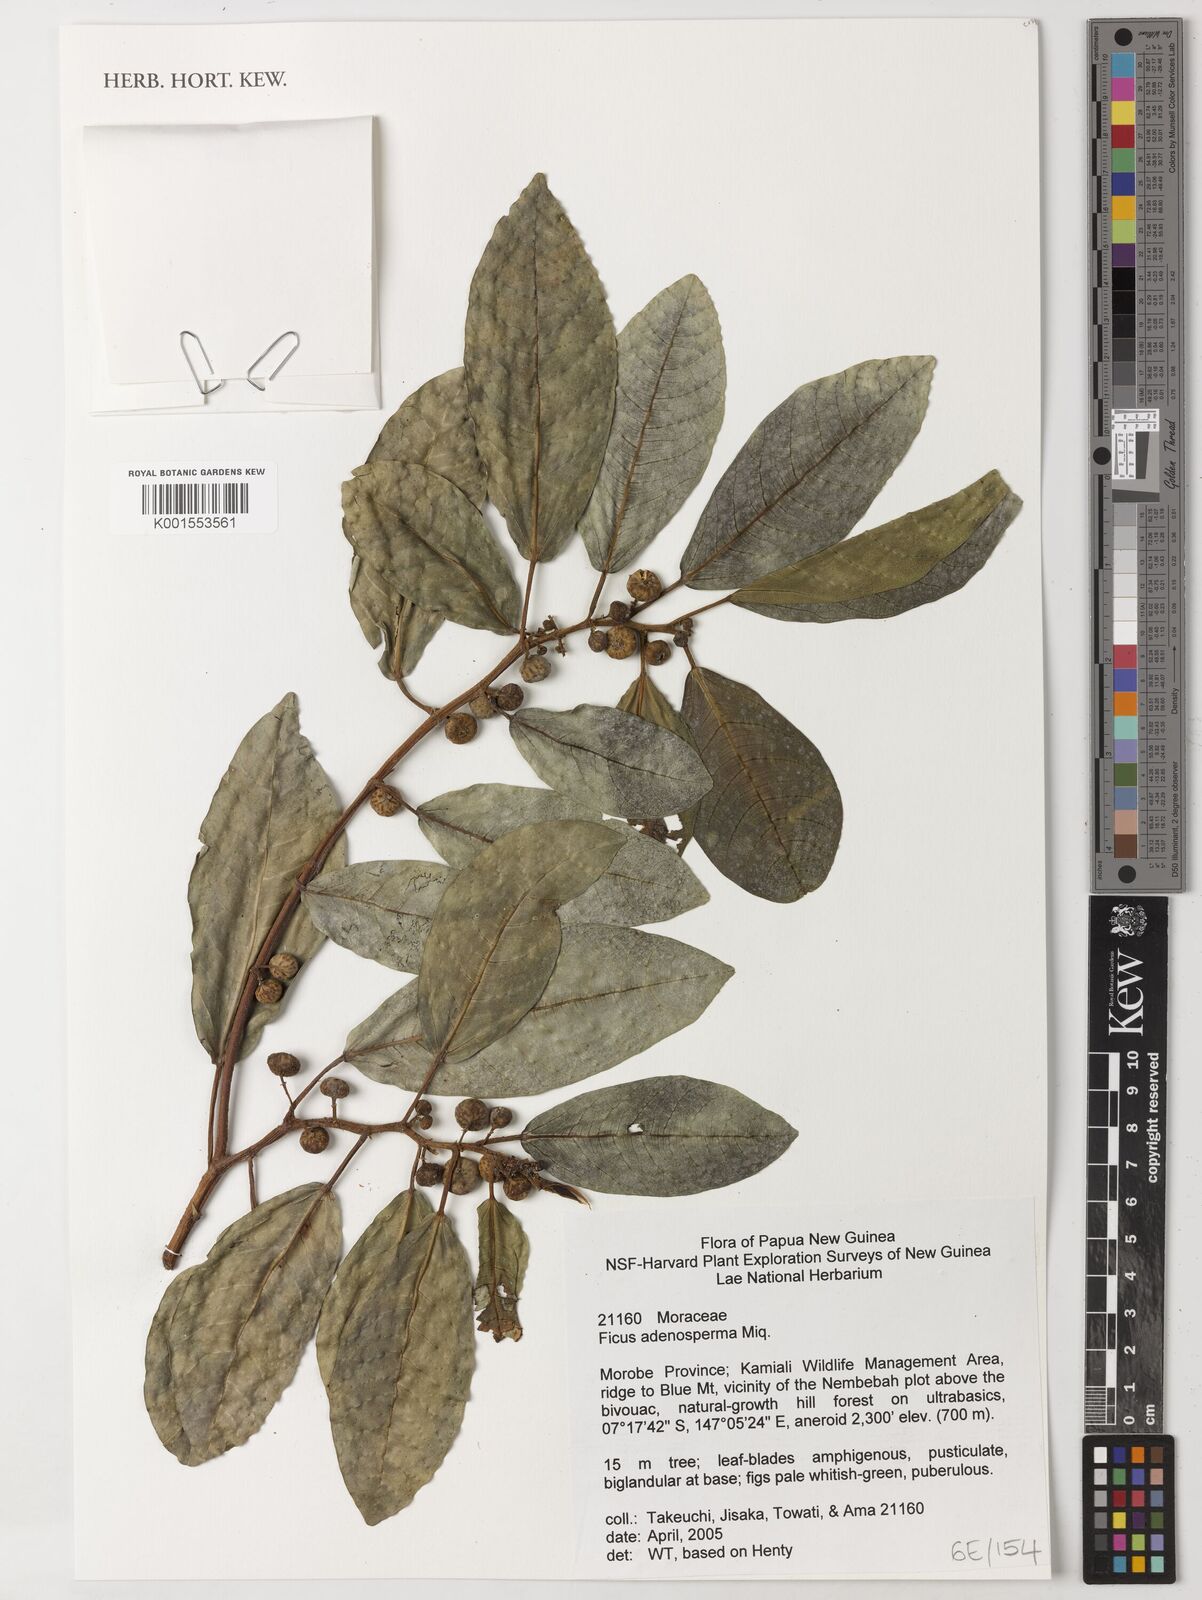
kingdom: Plantae
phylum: Tracheophyta
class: Magnoliopsida
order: Rosales
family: Moraceae
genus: Ficus
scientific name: Ficus adenosperma
